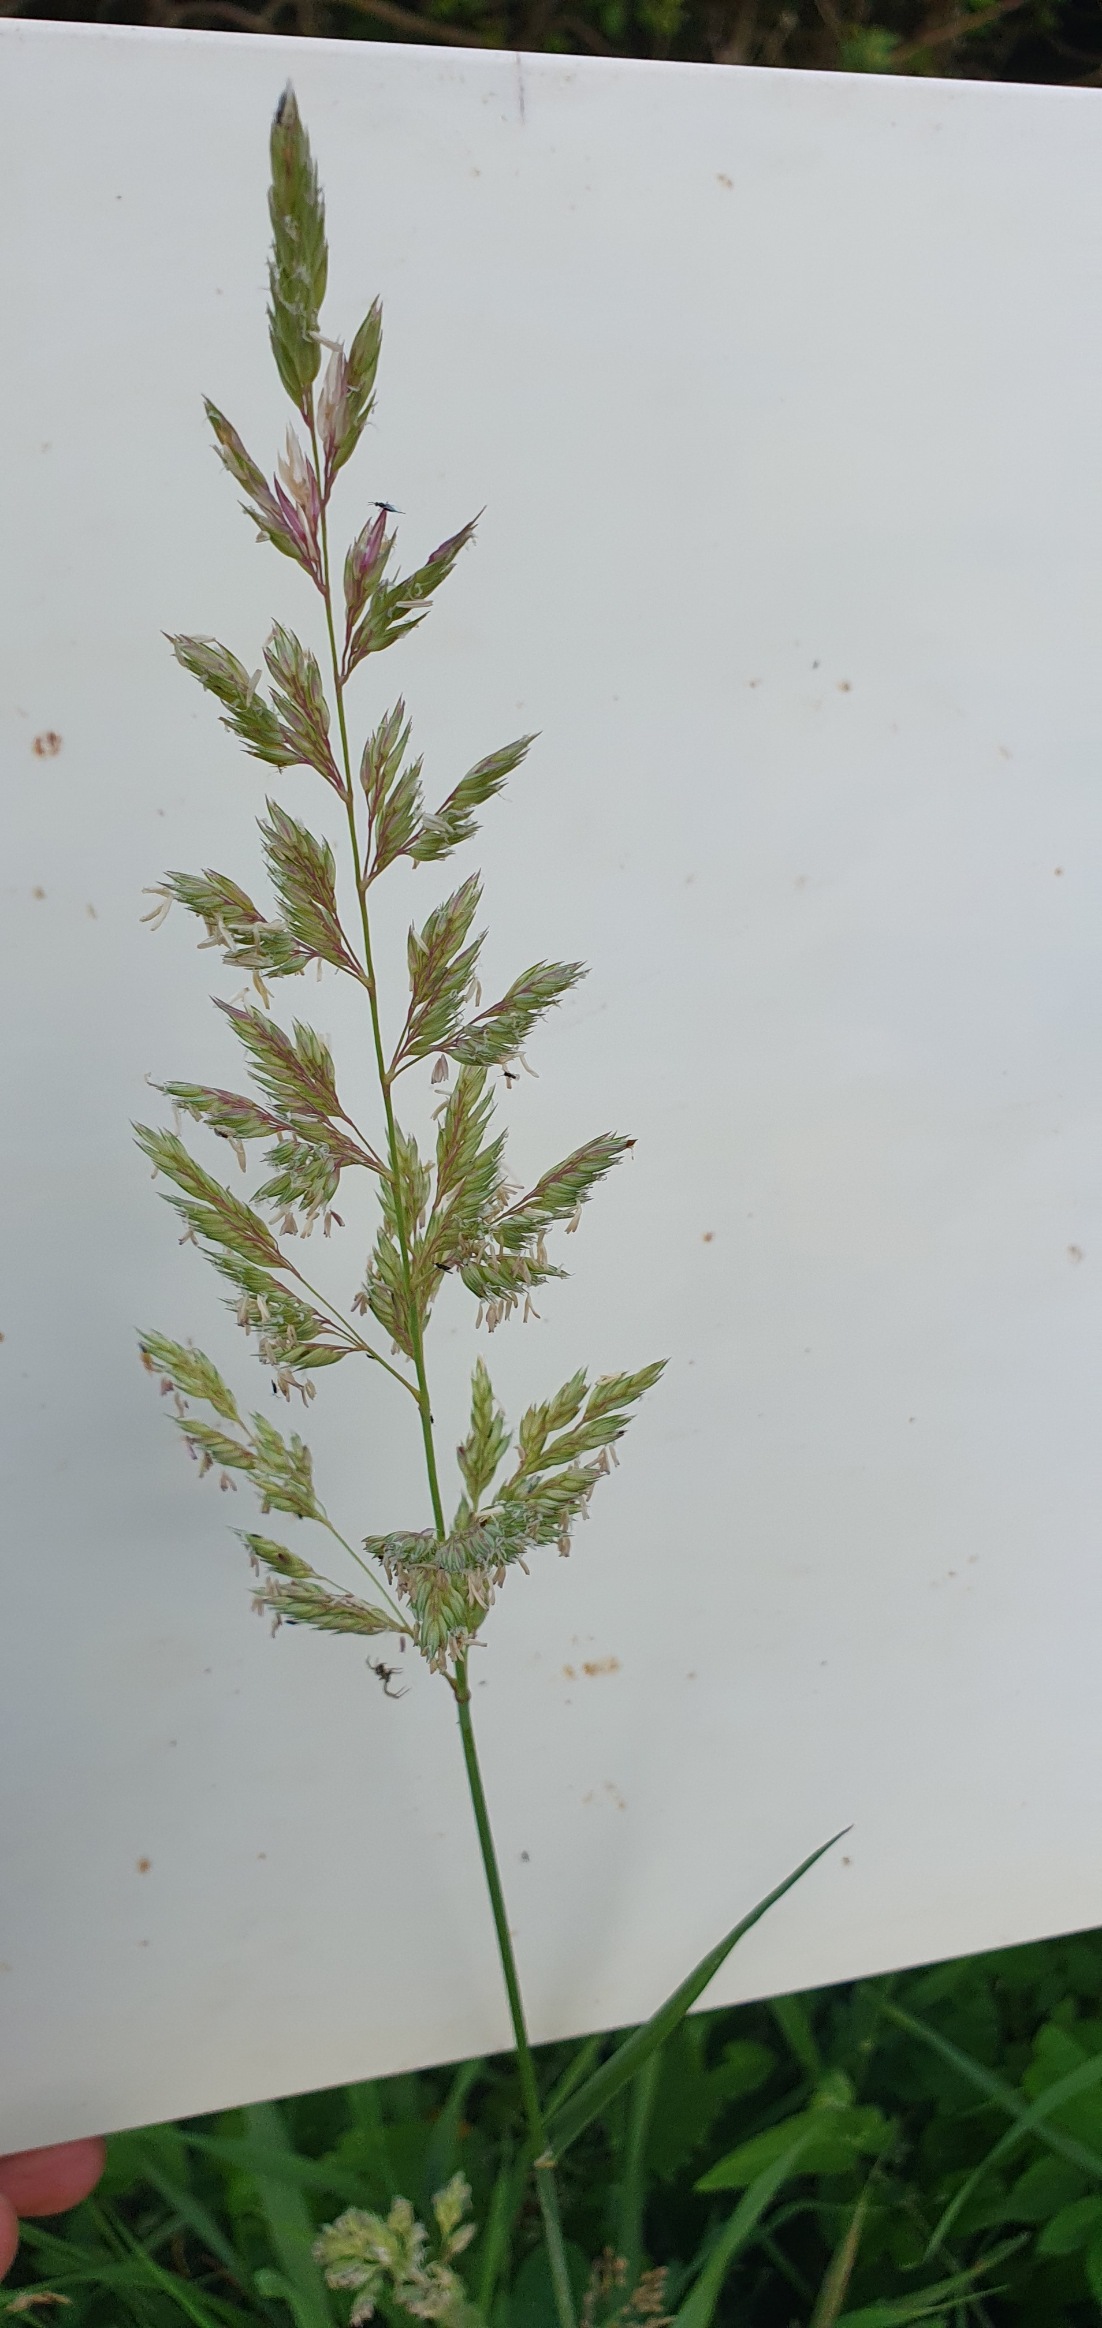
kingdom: Plantae
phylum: Tracheophyta
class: Liliopsida
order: Poales
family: Poaceae
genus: Phalaris
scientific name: Phalaris arundinacea
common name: Rørgræs
